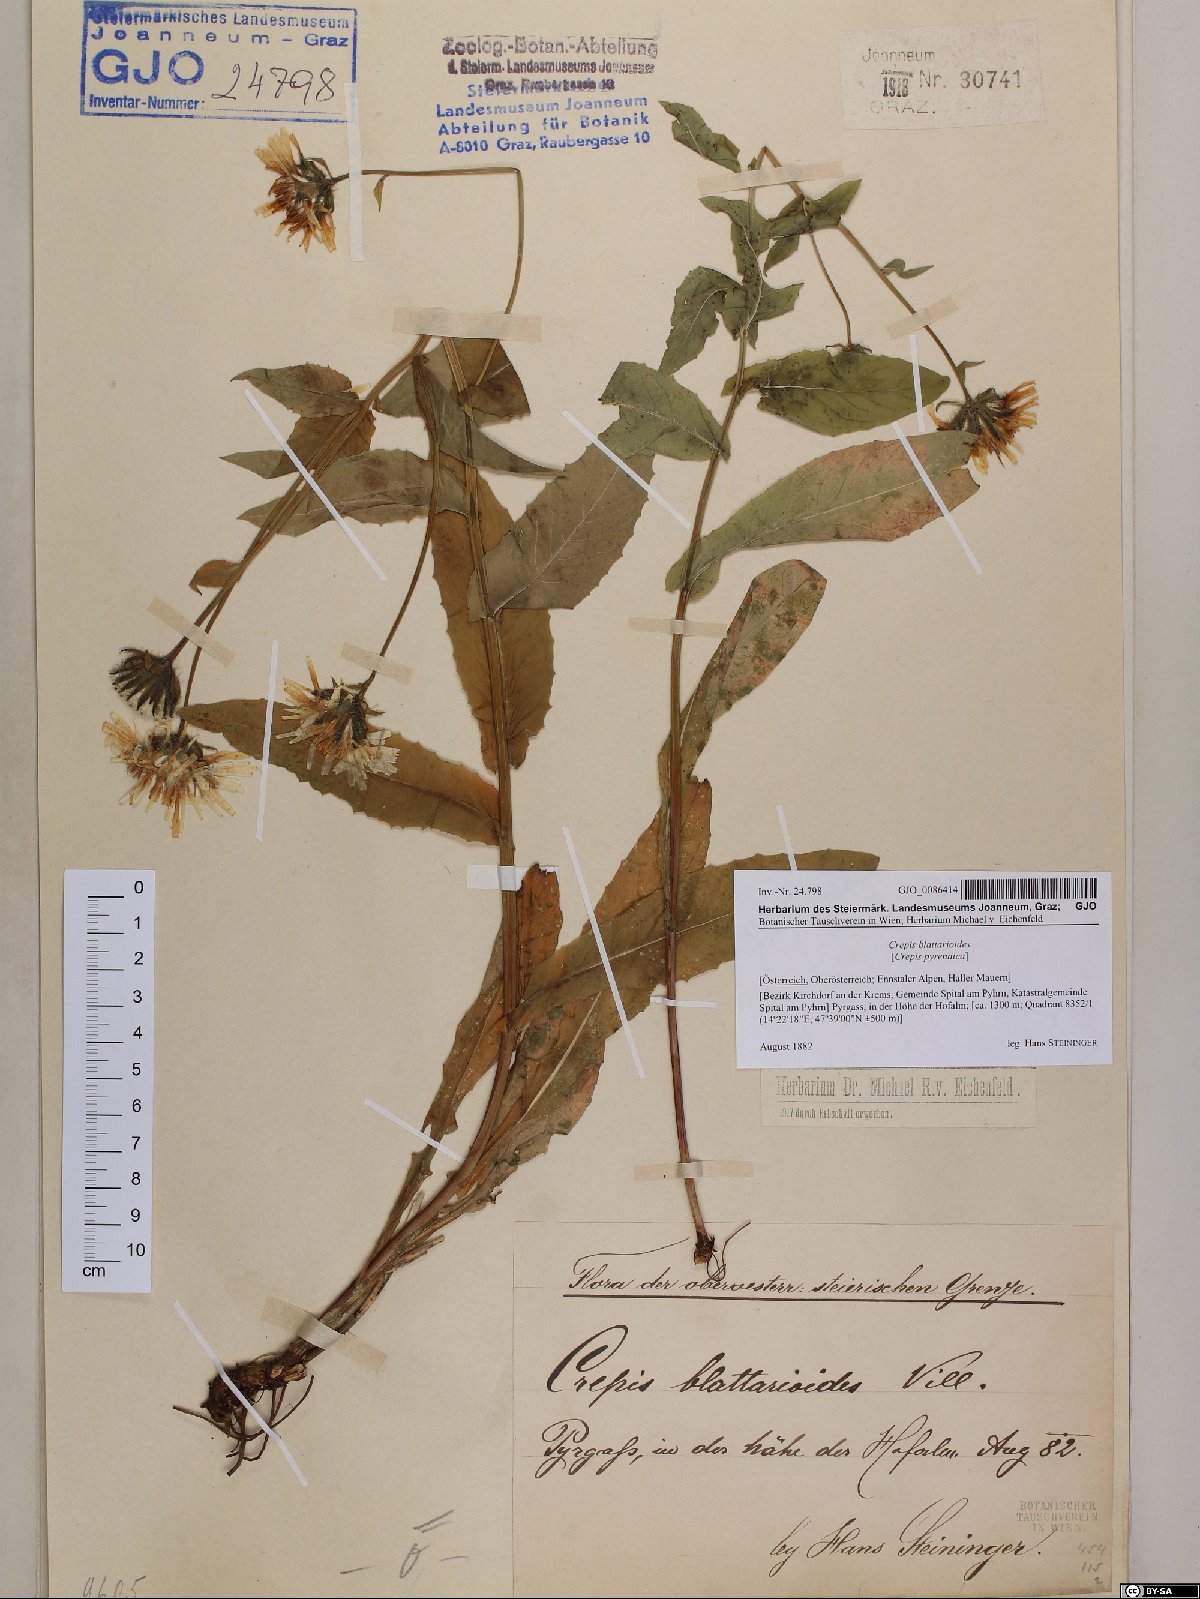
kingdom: Plantae
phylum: Tracheophyta
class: Magnoliopsida
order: Asterales
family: Asteraceae
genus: Crepis
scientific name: Crepis blattarioides
